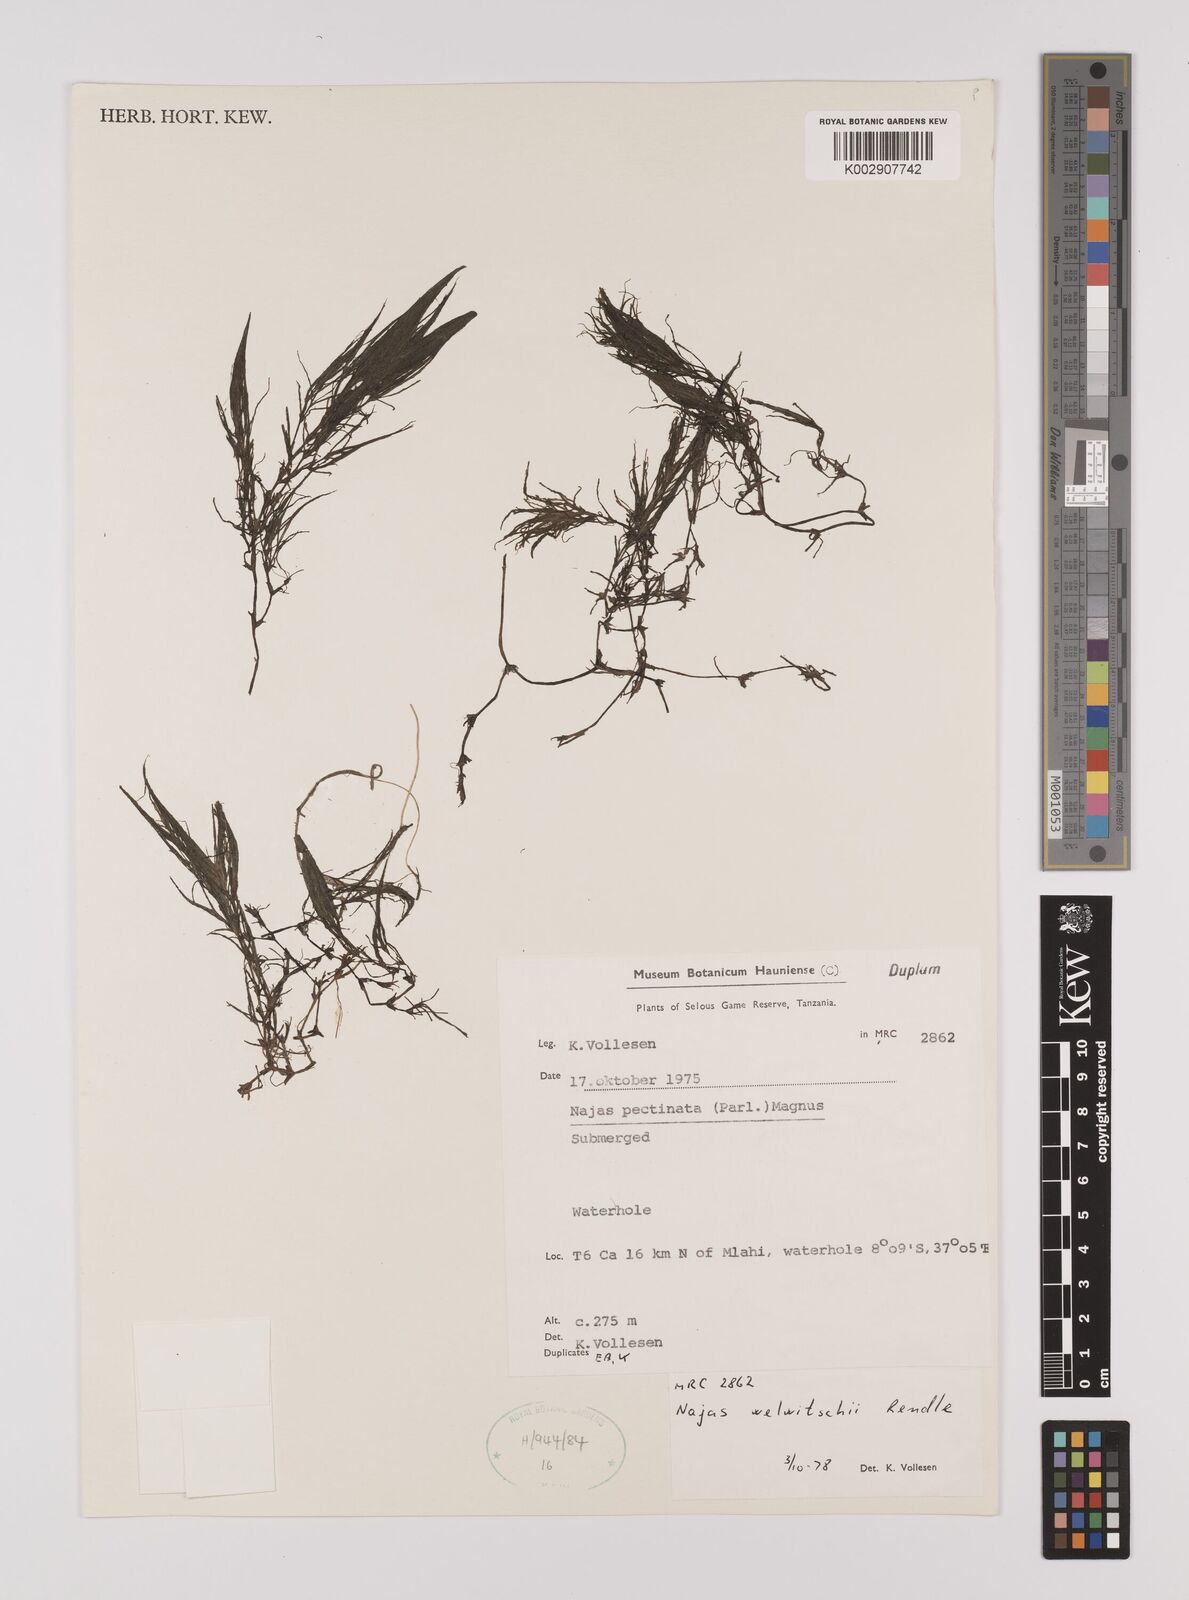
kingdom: Plantae
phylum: Tracheophyta
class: Liliopsida
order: Alismatales
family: Hydrocharitaceae
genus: Najas
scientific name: Najas horrida
